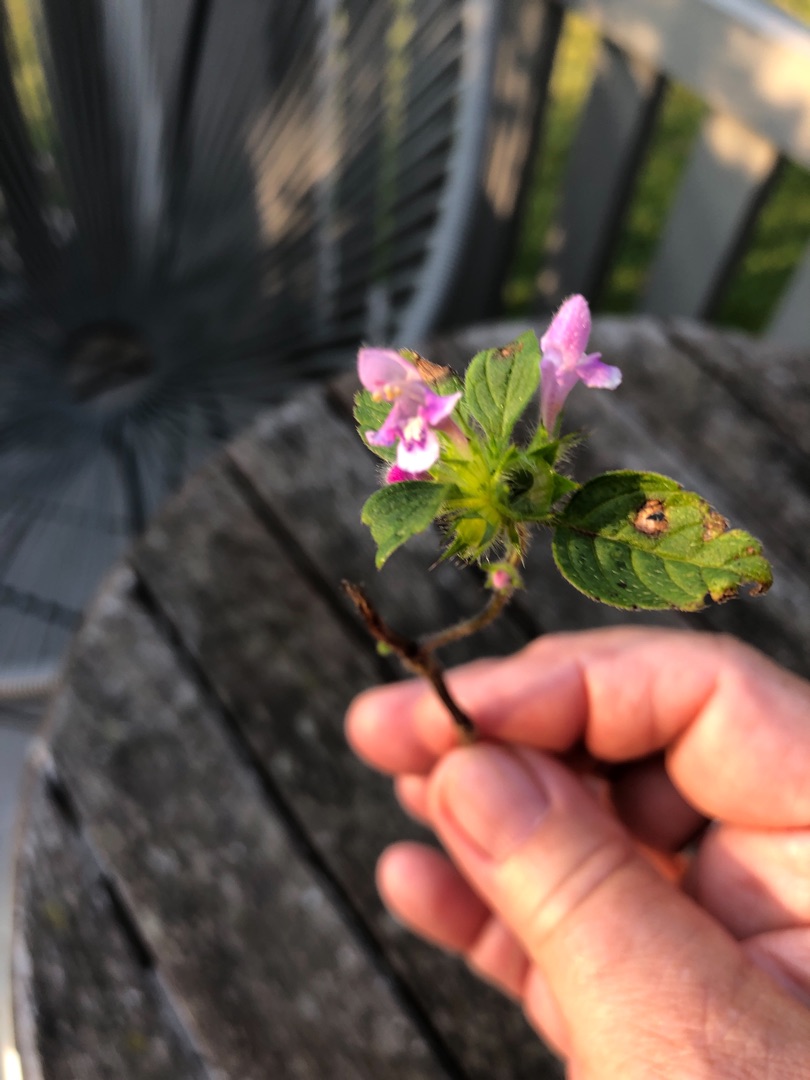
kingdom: Plantae
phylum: Tracheophyta
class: Magnoliopsida
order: Lamiales
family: Lamiaceae
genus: Galeopsis
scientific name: Galeopsis tetrahit
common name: Almindelig hanekro
